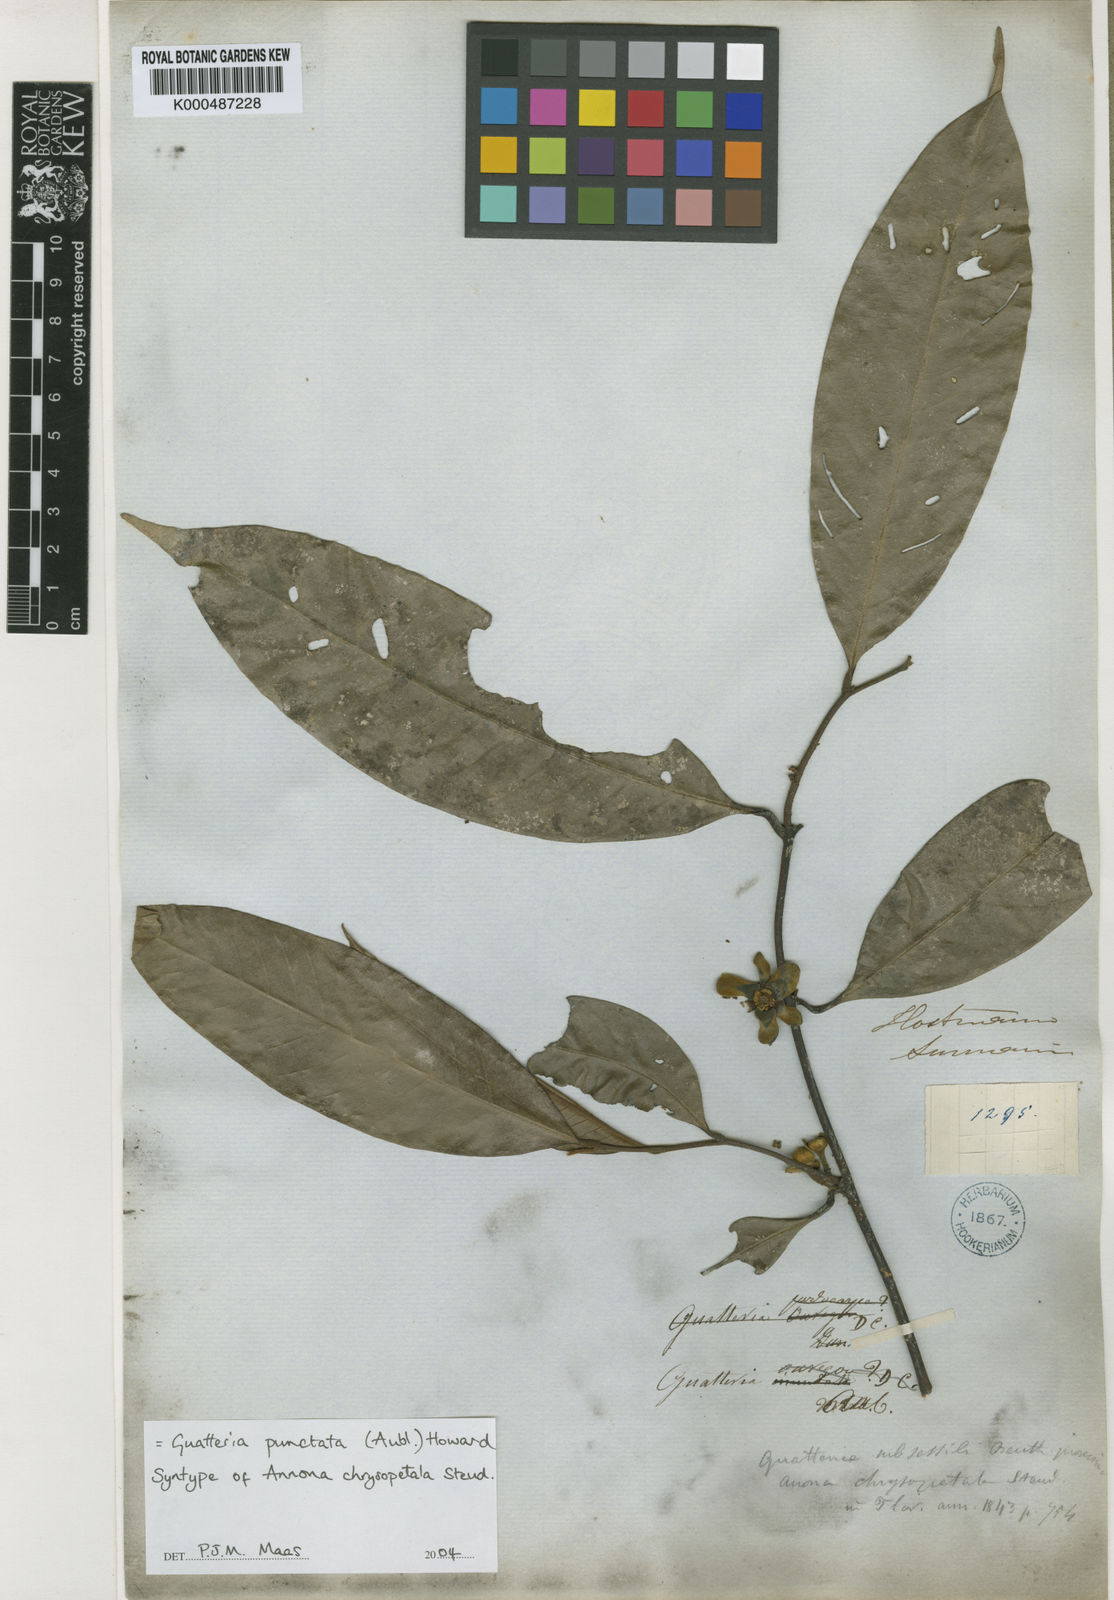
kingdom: Plantae
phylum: Tracheophyta
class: Magnoliopsida
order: Magnoliales
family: Annonaceae
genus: Guatteria
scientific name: Guatteria punctata
